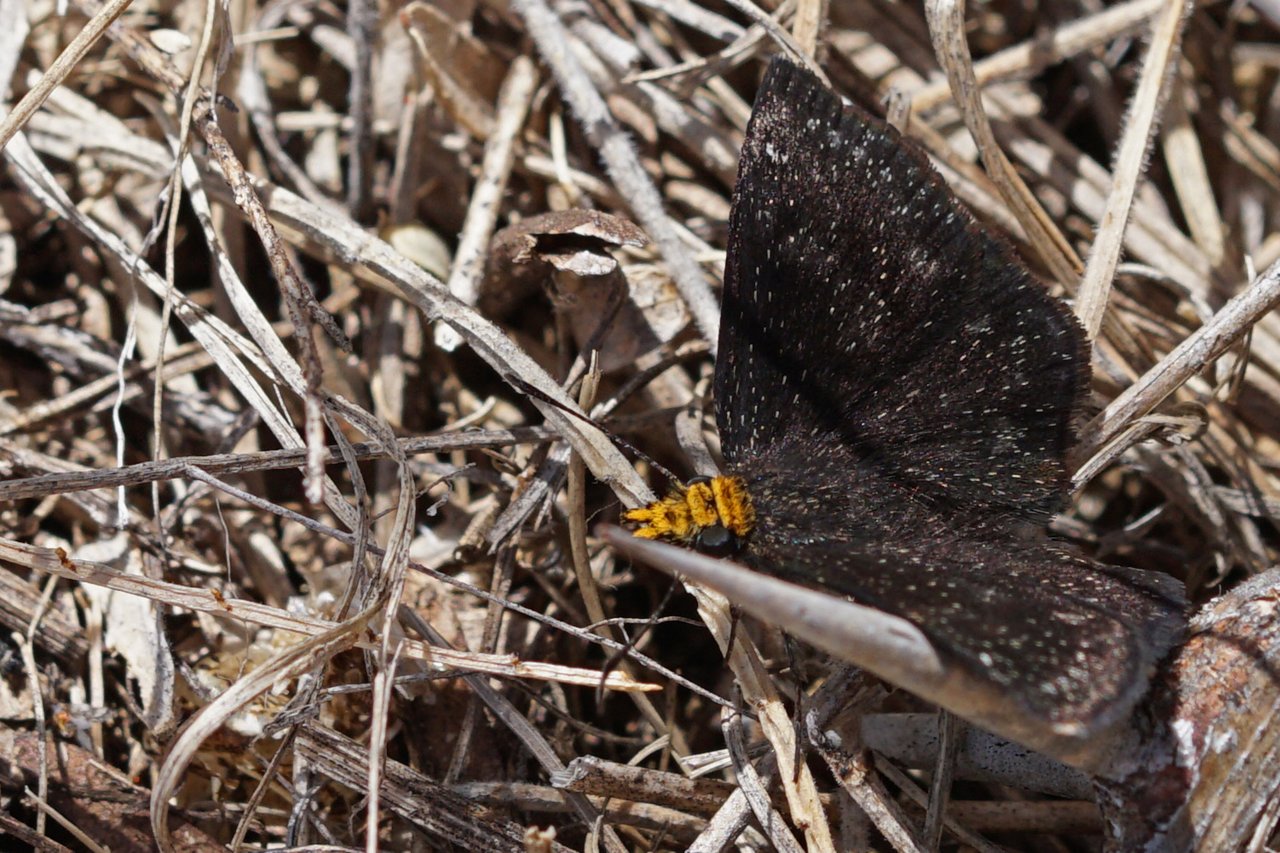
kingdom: Animalia
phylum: Arthropoda
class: Insecta
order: Lepidoptera
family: Hesperiidae
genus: Staphylus
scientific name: Staphylus ceos
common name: Golden-headed Scallopwing
